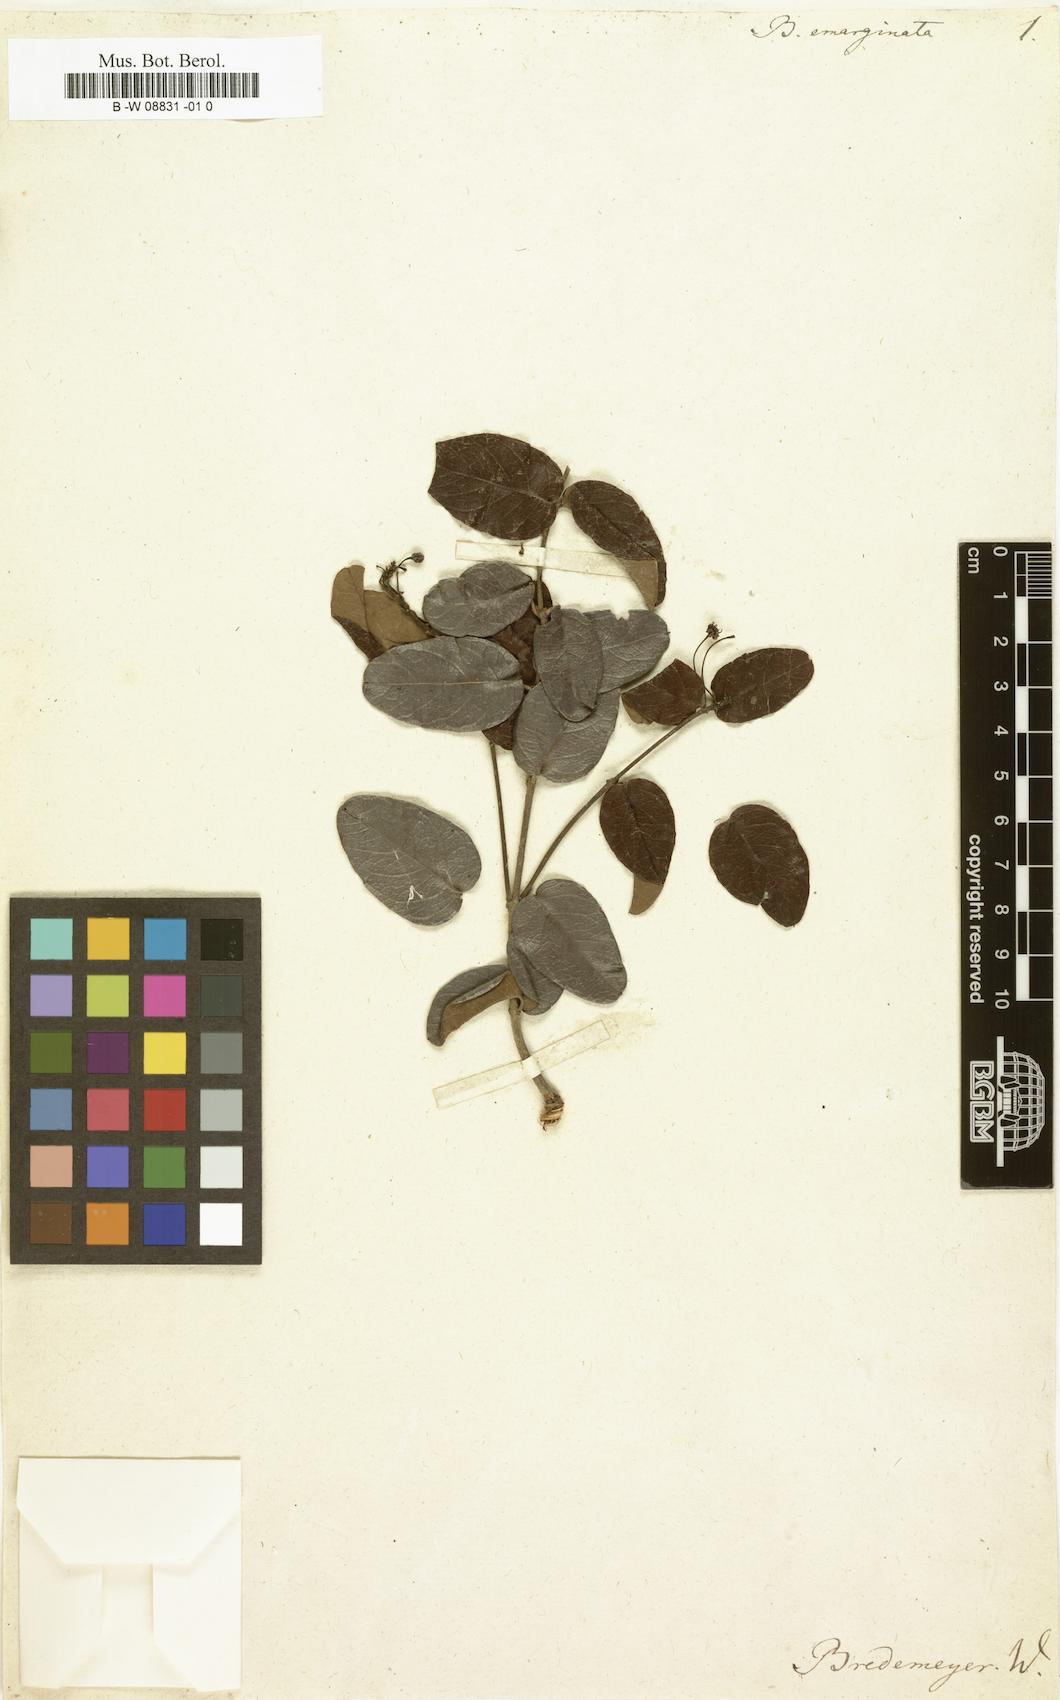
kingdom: Plantae
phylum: Tracheophyta
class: Magnoliopsida
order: Malpighiales
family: Malpighiaceae
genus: Stigmaphyllon
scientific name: Stigmaphyllon emarginatum
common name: Monarch amazonvine
